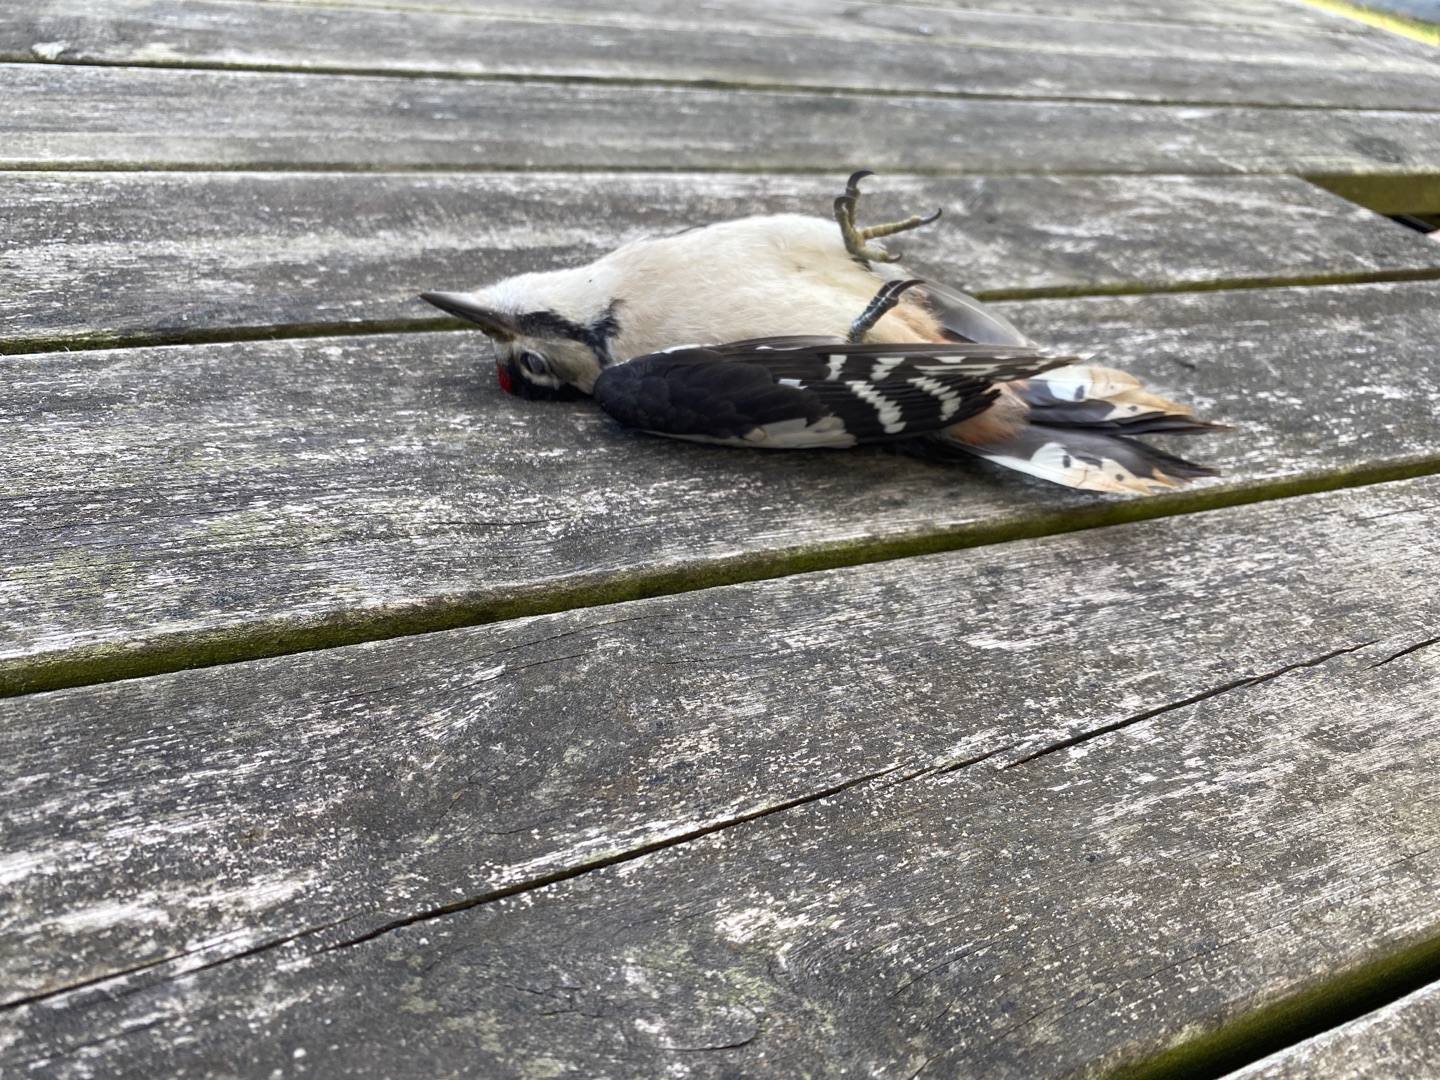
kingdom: Animalia
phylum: Chordata
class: Aves
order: Piciformes
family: Picidae
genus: Dendrocopos
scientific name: Dendrocopos major
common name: Stor flagspætte
